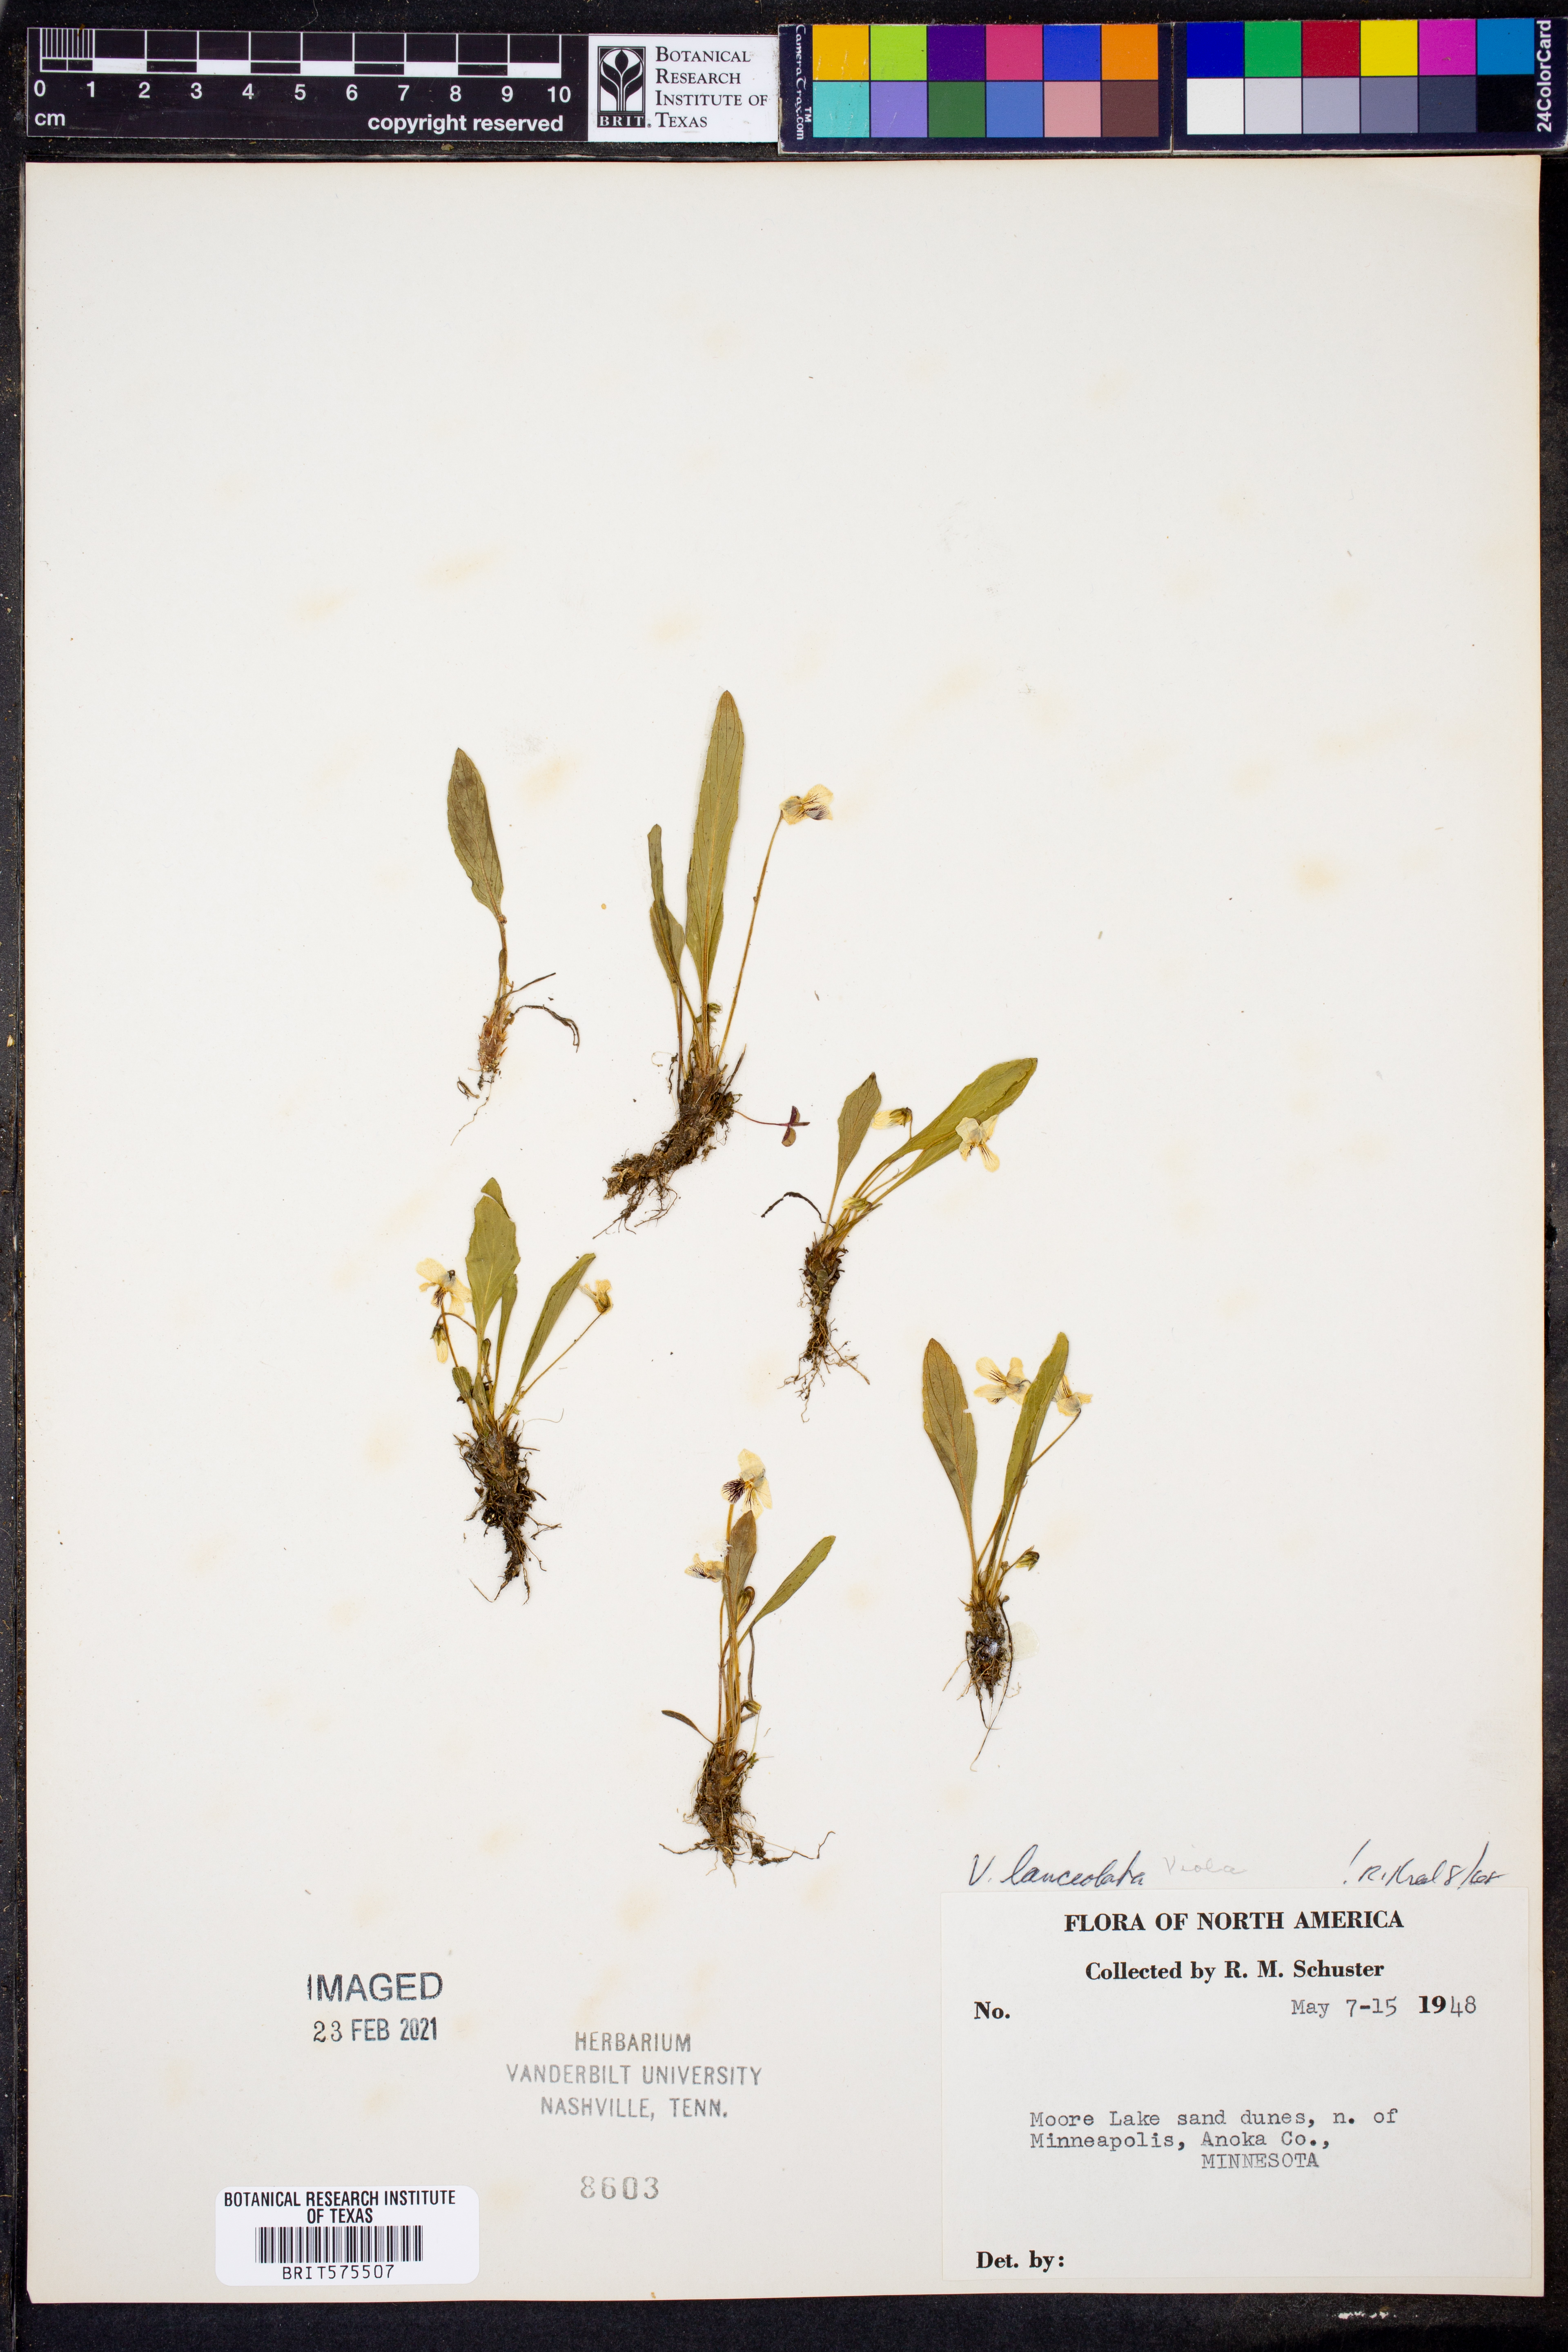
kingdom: Plantae
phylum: Tracheophyta
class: Magnoliopsida
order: Malpighiales
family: Violaceae
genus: Viola
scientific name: Viola lanceolata
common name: Bog white violet
